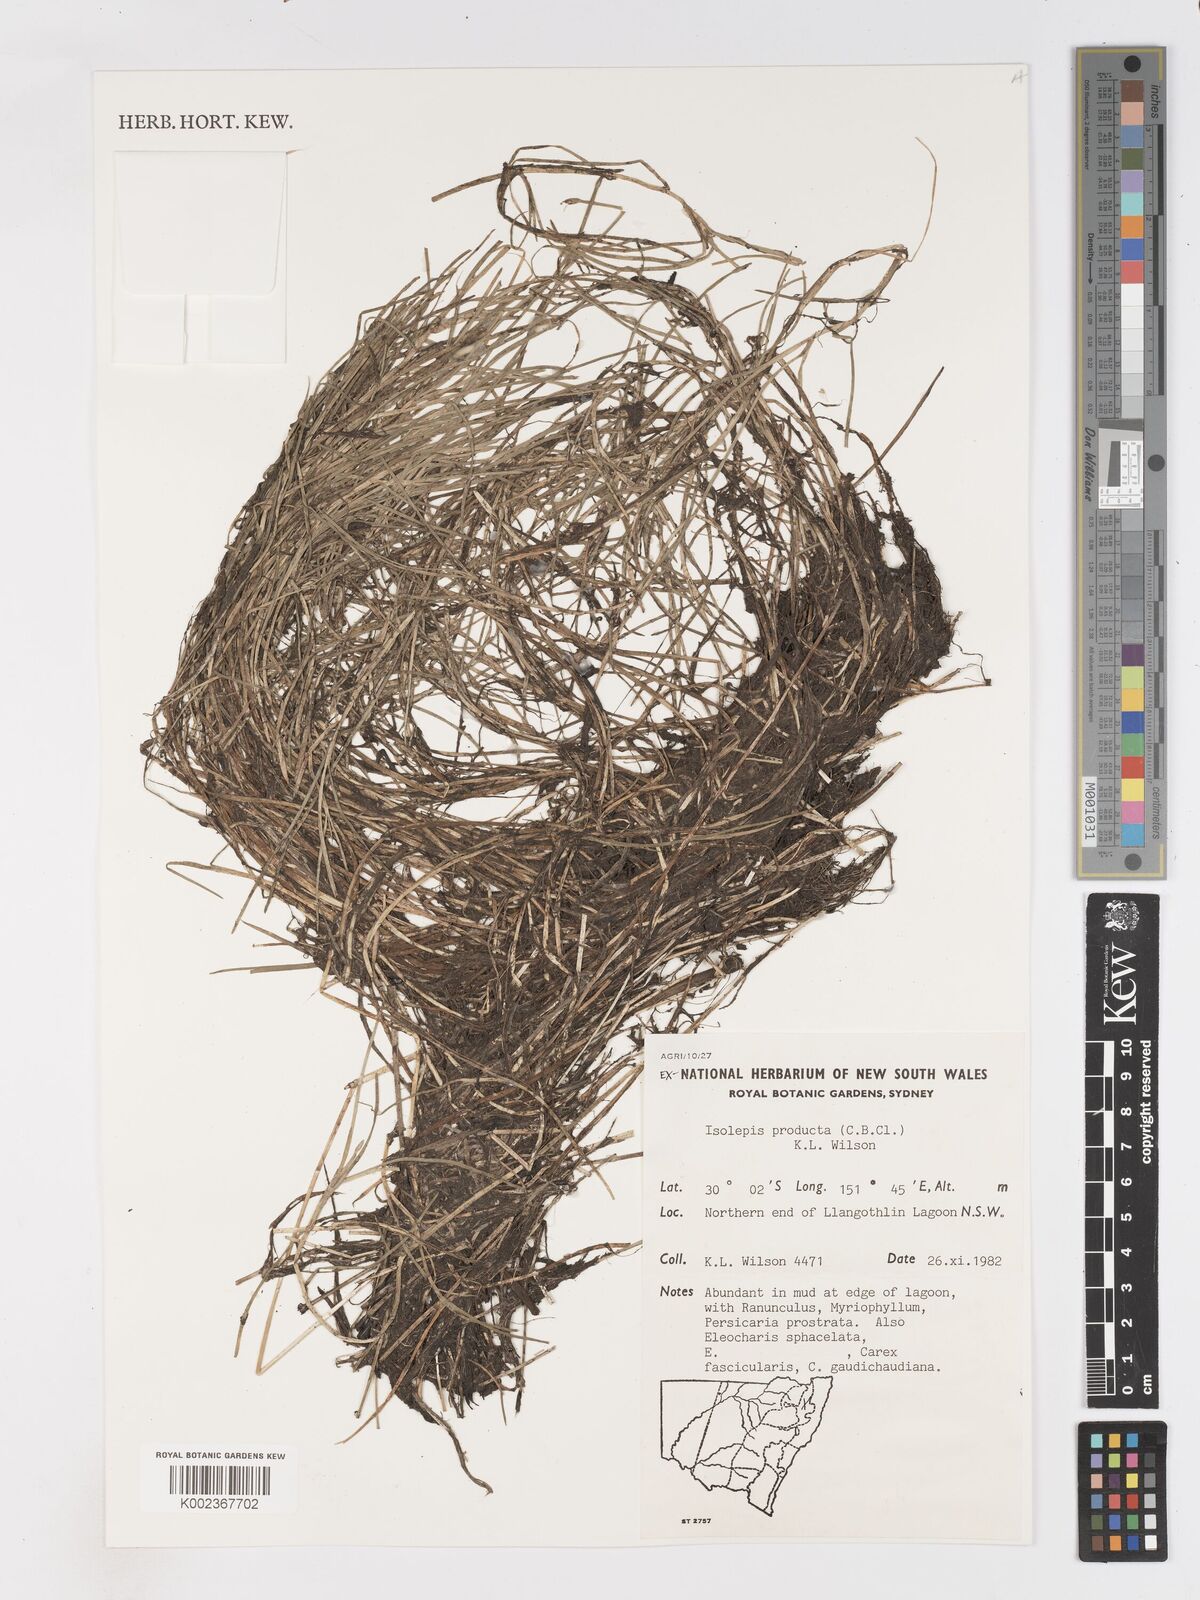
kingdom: Plantae
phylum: Tracheophyta
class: Liliopsida
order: Poales
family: Cyperaceae
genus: Isolepis
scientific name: Isolepis producta
